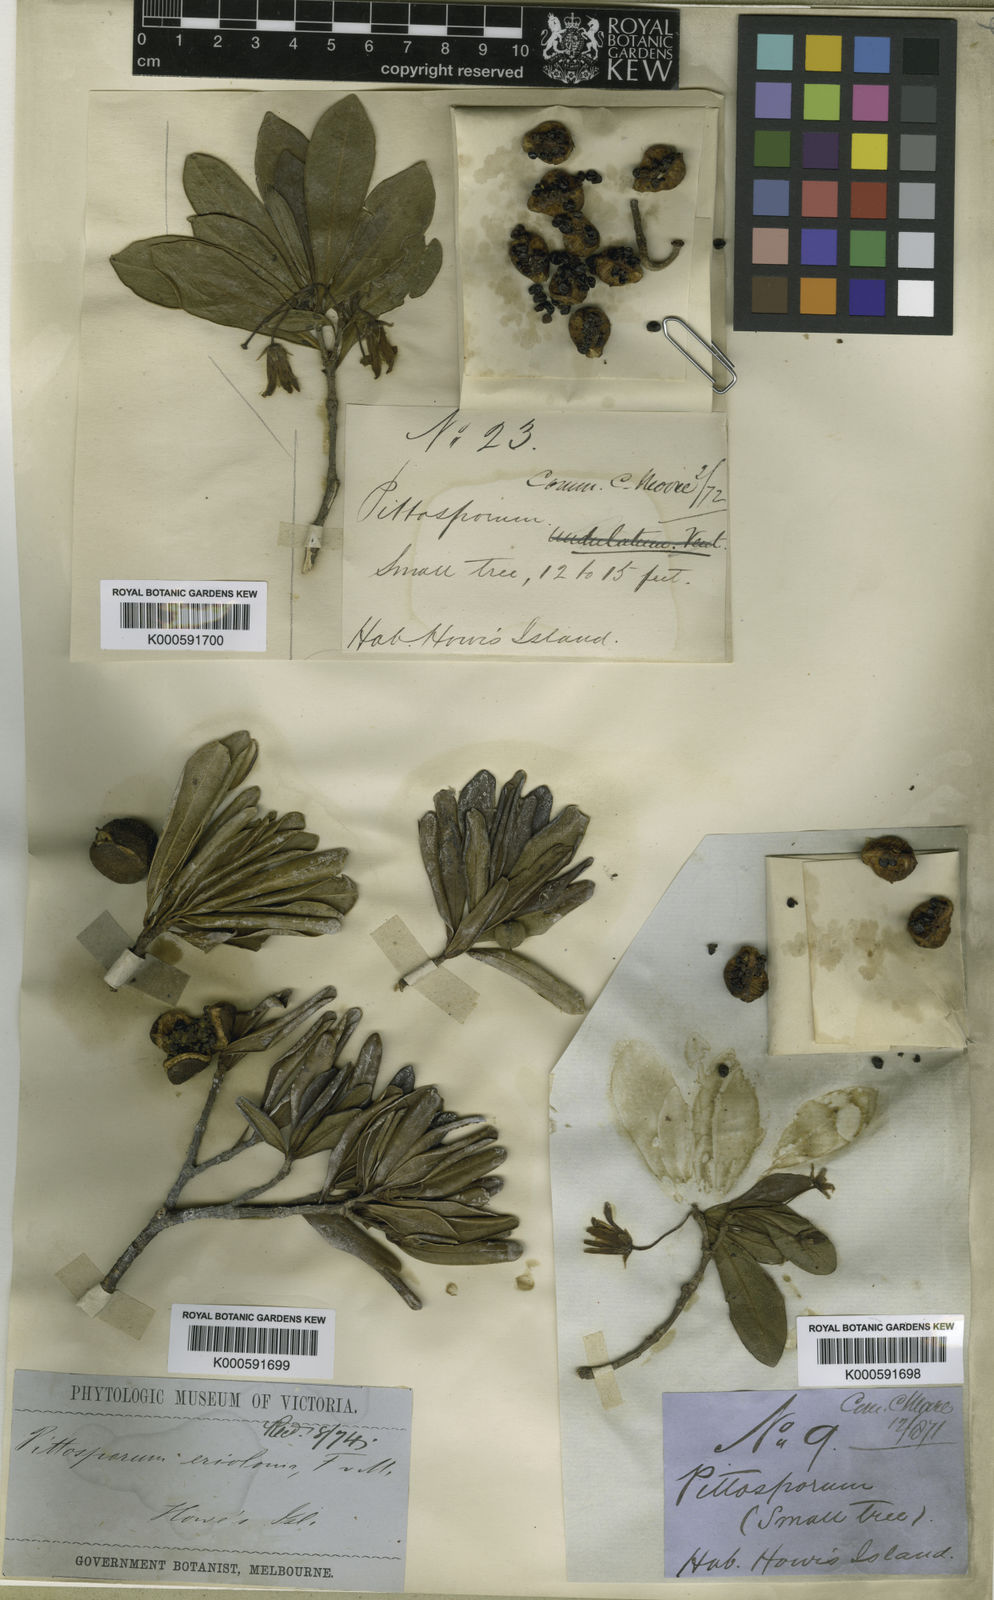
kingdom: Plantae
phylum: Tracheophyta
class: Magnoliopsida
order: Apiales
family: Pittosporaceae
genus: Pittosporum
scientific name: Pittosporum erioloma
